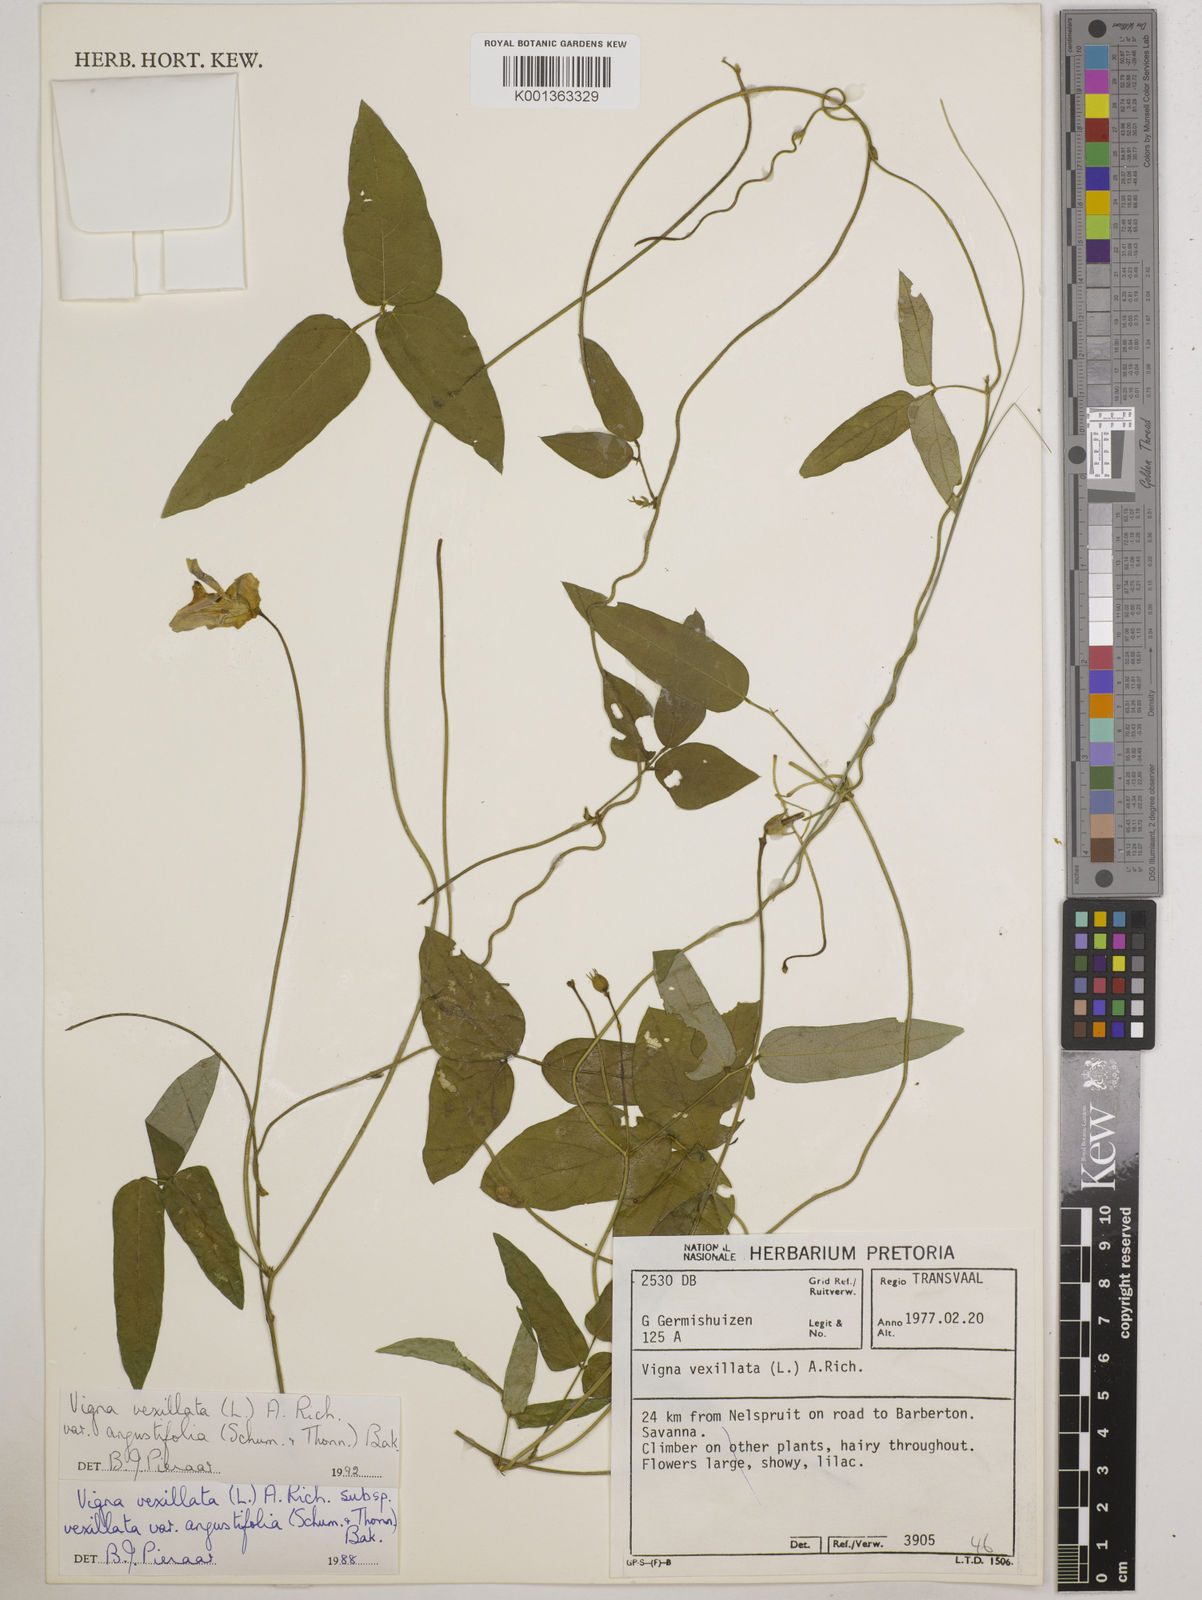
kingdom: Plantae
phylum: Tracheophyta
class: Magnoliopsida
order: Fabales
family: Fabaceae
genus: Vigna
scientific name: Vigna
